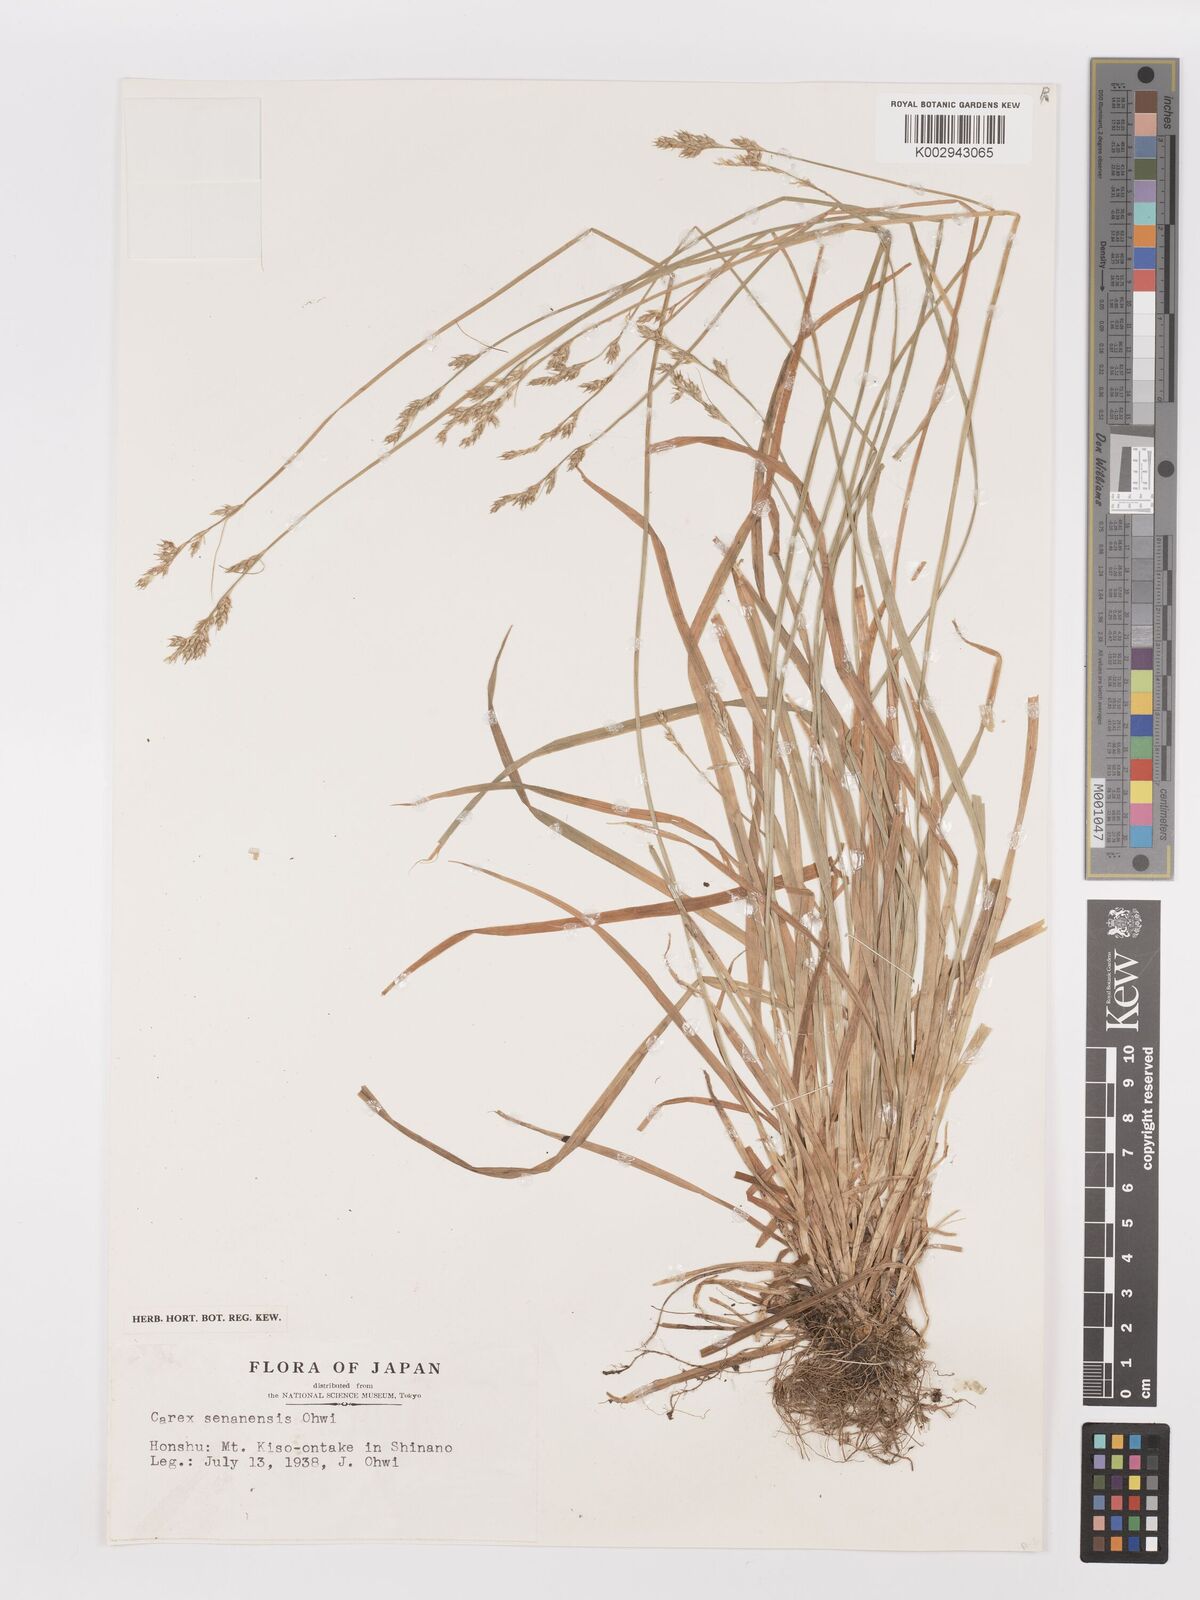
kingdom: Plantae
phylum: Tracheophyta
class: Liliopsida
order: Poales
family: Cyperaceae
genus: Carex
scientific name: Carex senanensis
